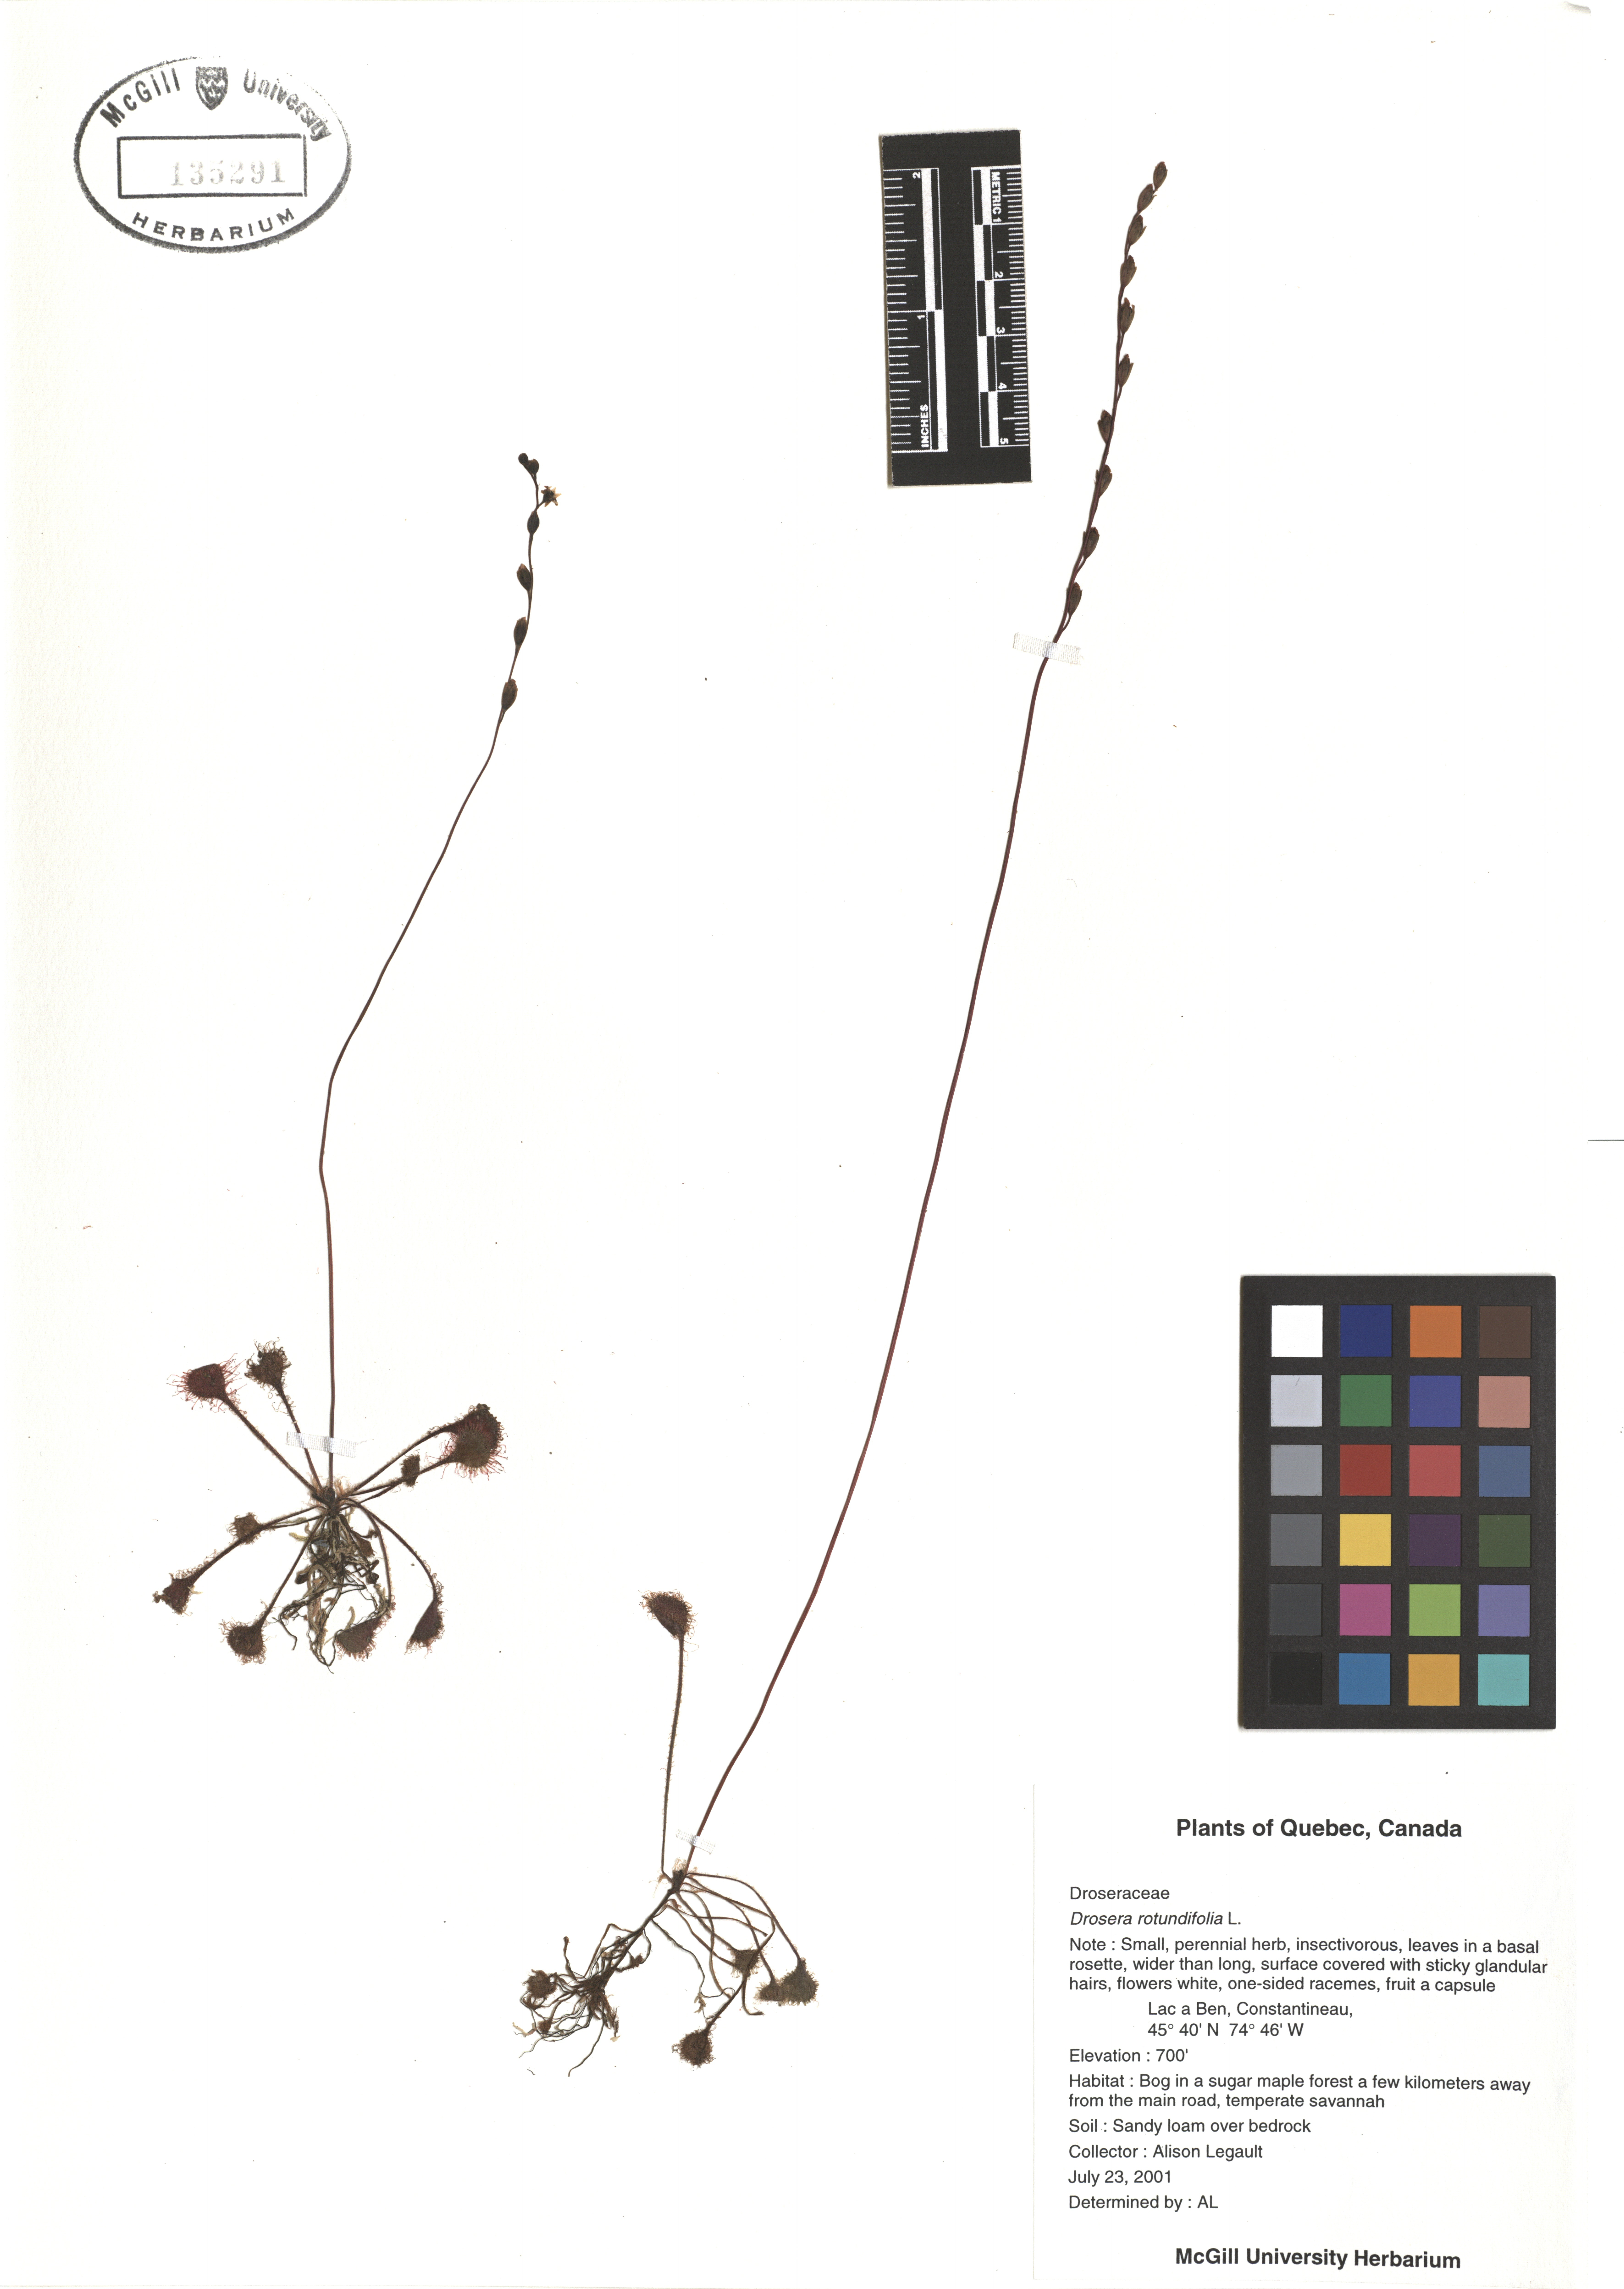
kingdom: Plantae
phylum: Tracheophyta
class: Magnoliopsida
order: Caryophyllales
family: Droseraceae
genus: Drosera
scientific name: Drosera rotundifolia
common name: Round-leaved sundew
